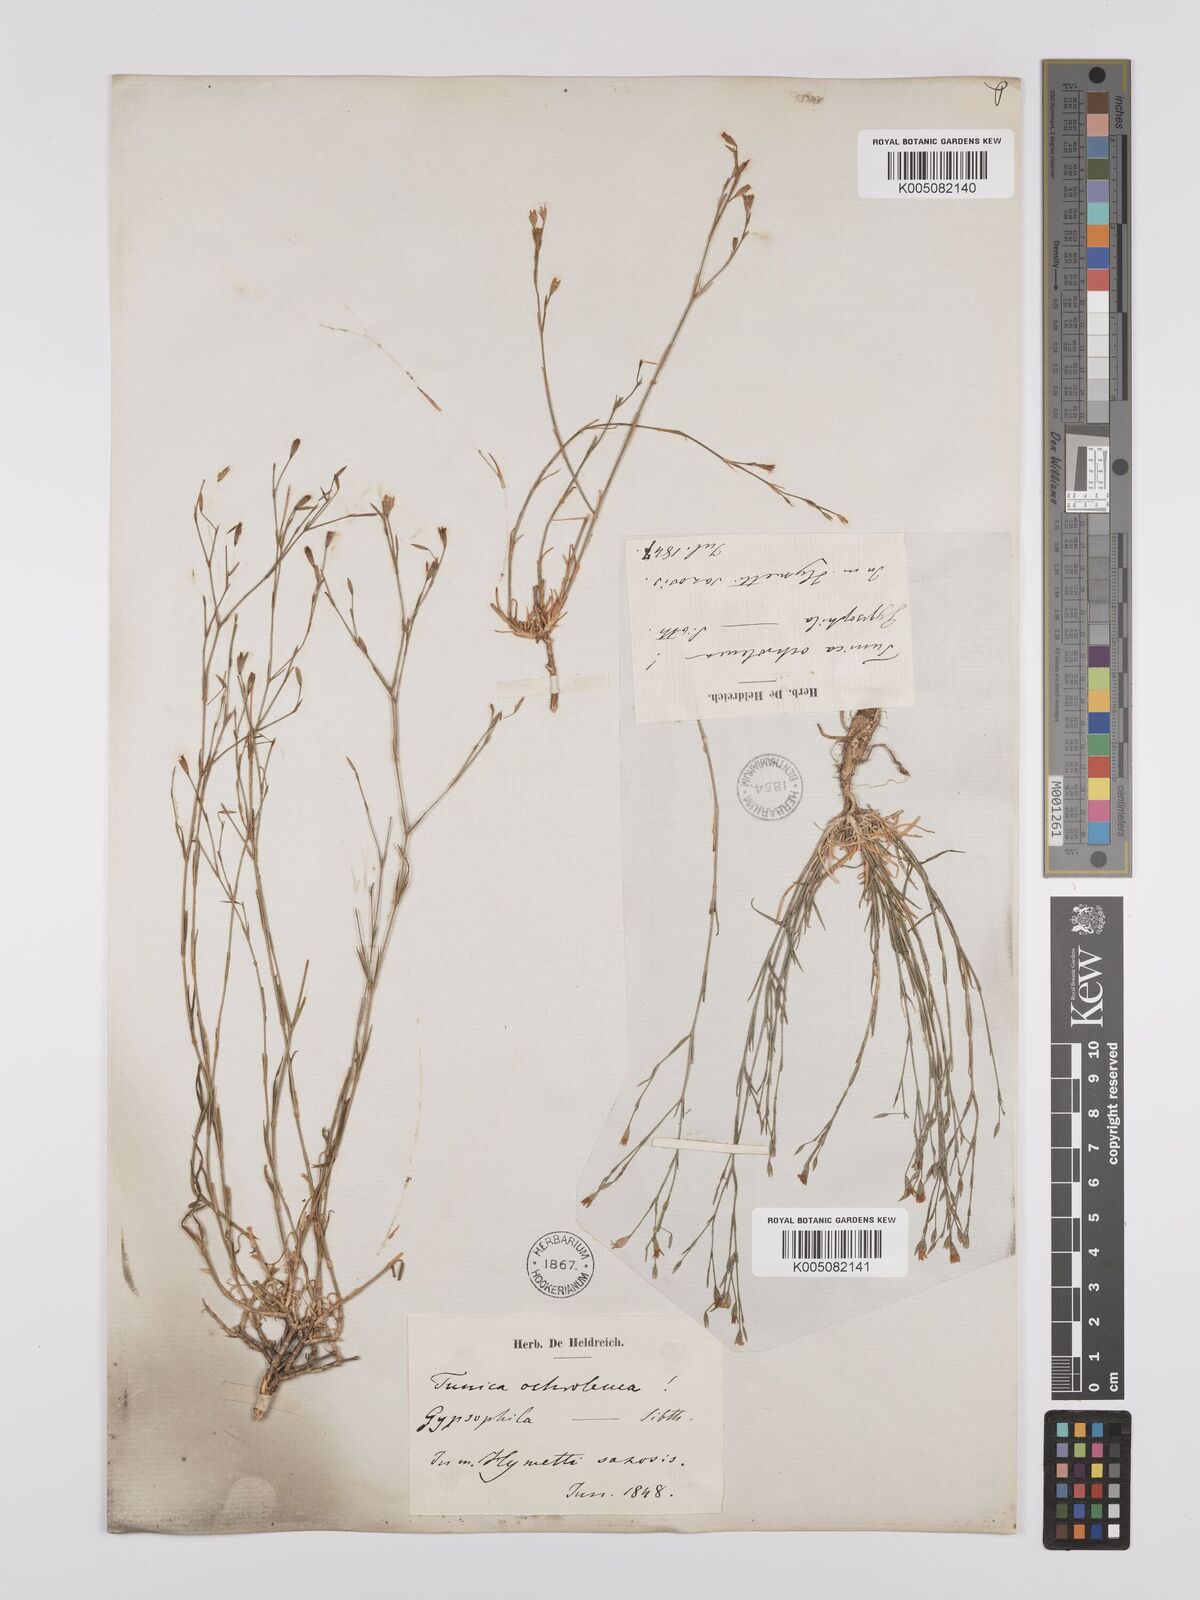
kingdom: Plantae
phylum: Tracheophyta
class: Magnoliopsida
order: Caryophyllales
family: Caryophyllaceae
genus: Petrorhagia
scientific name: Petrorhagia ochroleuca
